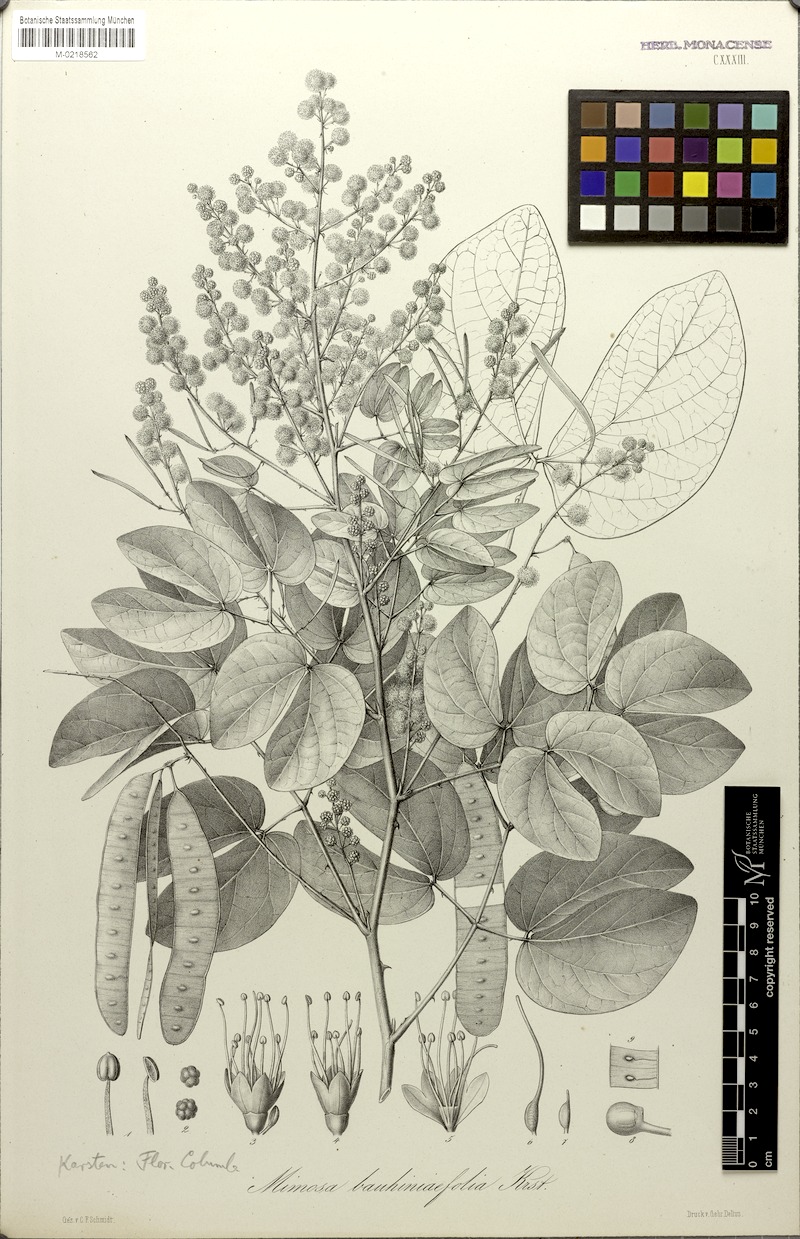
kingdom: Plantae
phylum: Tracheophyta
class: Magnoliopsida
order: Fabales
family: Fabaceae
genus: Mimosa
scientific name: Mimosa colombiana
